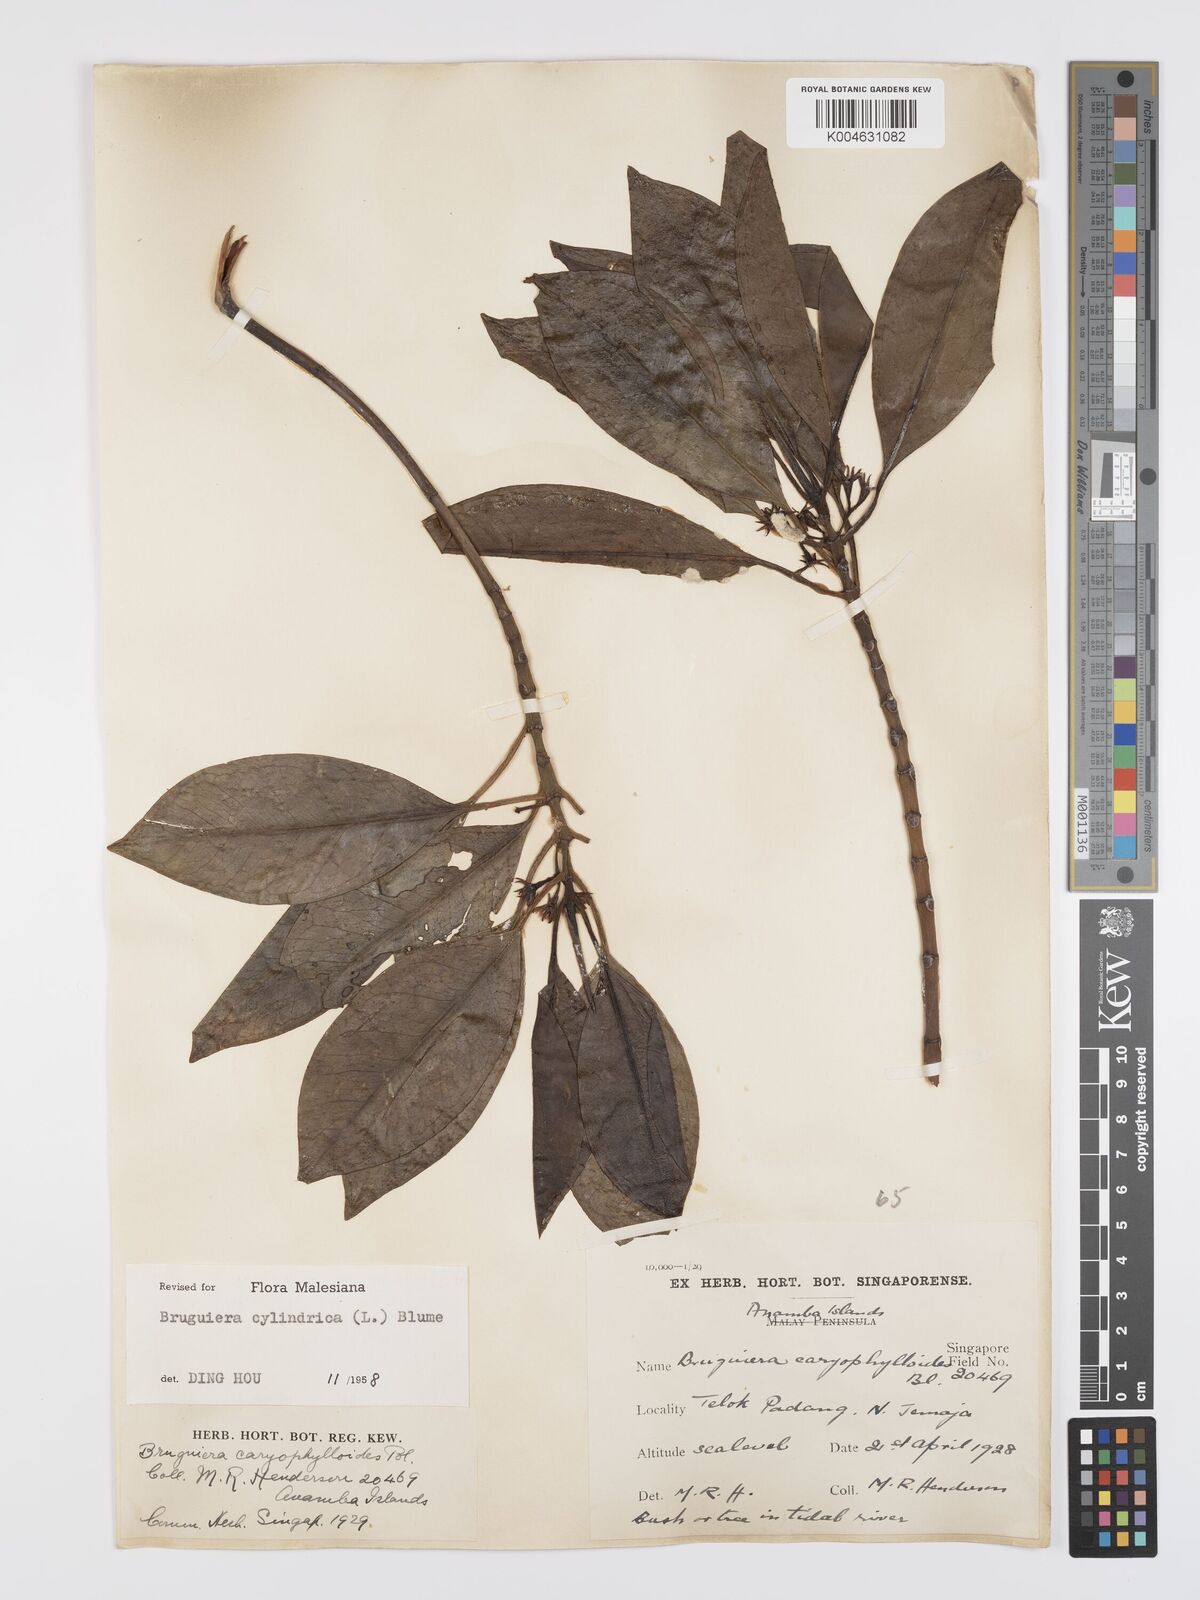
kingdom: Plantae
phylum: Tracheophyta
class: Magnoliopsida
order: Malpighiales
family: Rhizophoraceae
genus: Bruguiera
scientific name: Bruguiera cylindrica
